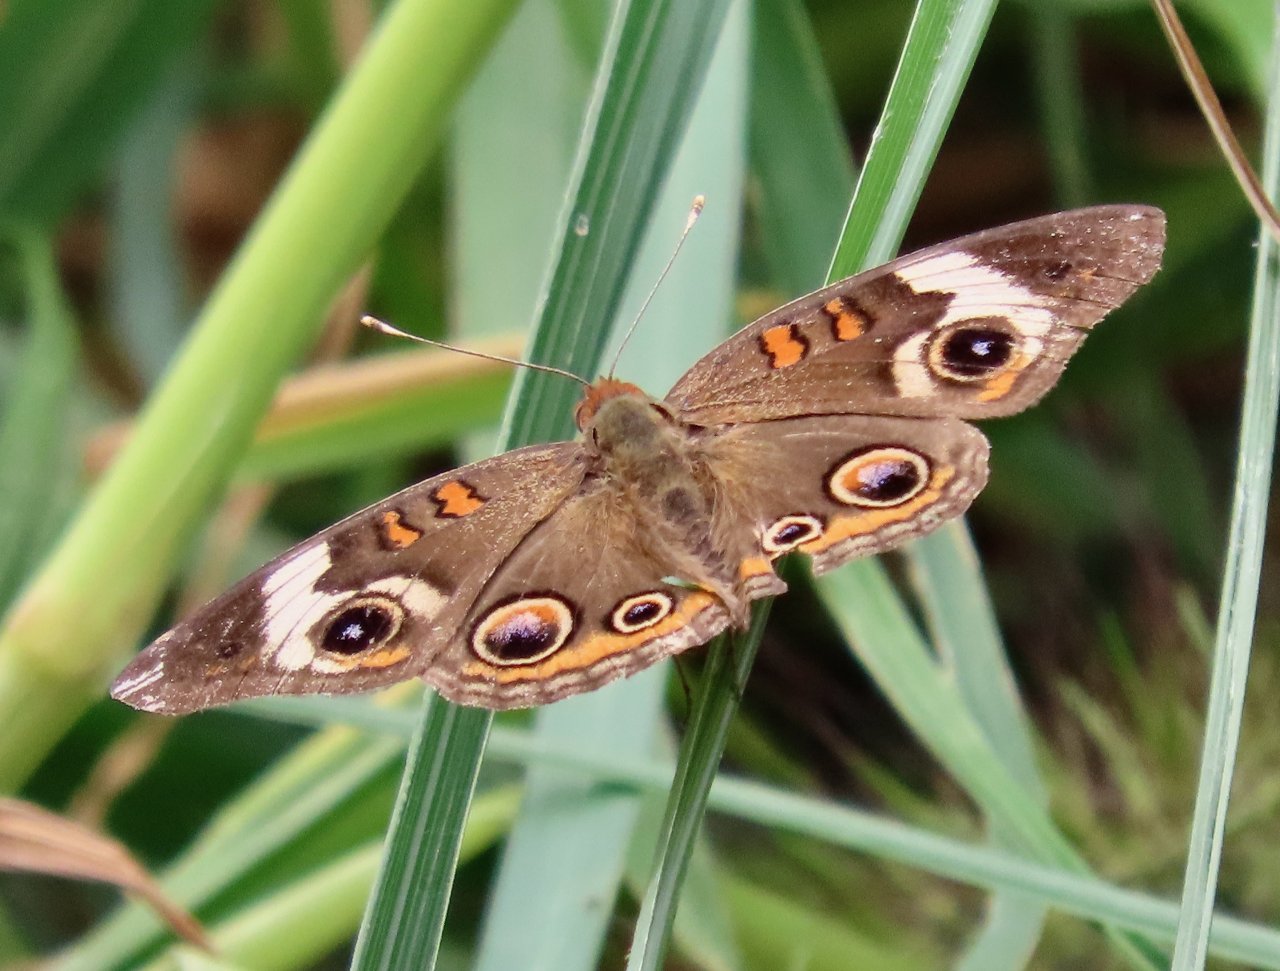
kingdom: Animalia
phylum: Arthropoda
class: Insecta
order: Lepidoptera
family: Nymphalidae
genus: Junonia
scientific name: Junonia coenia
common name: Common Buckeye
